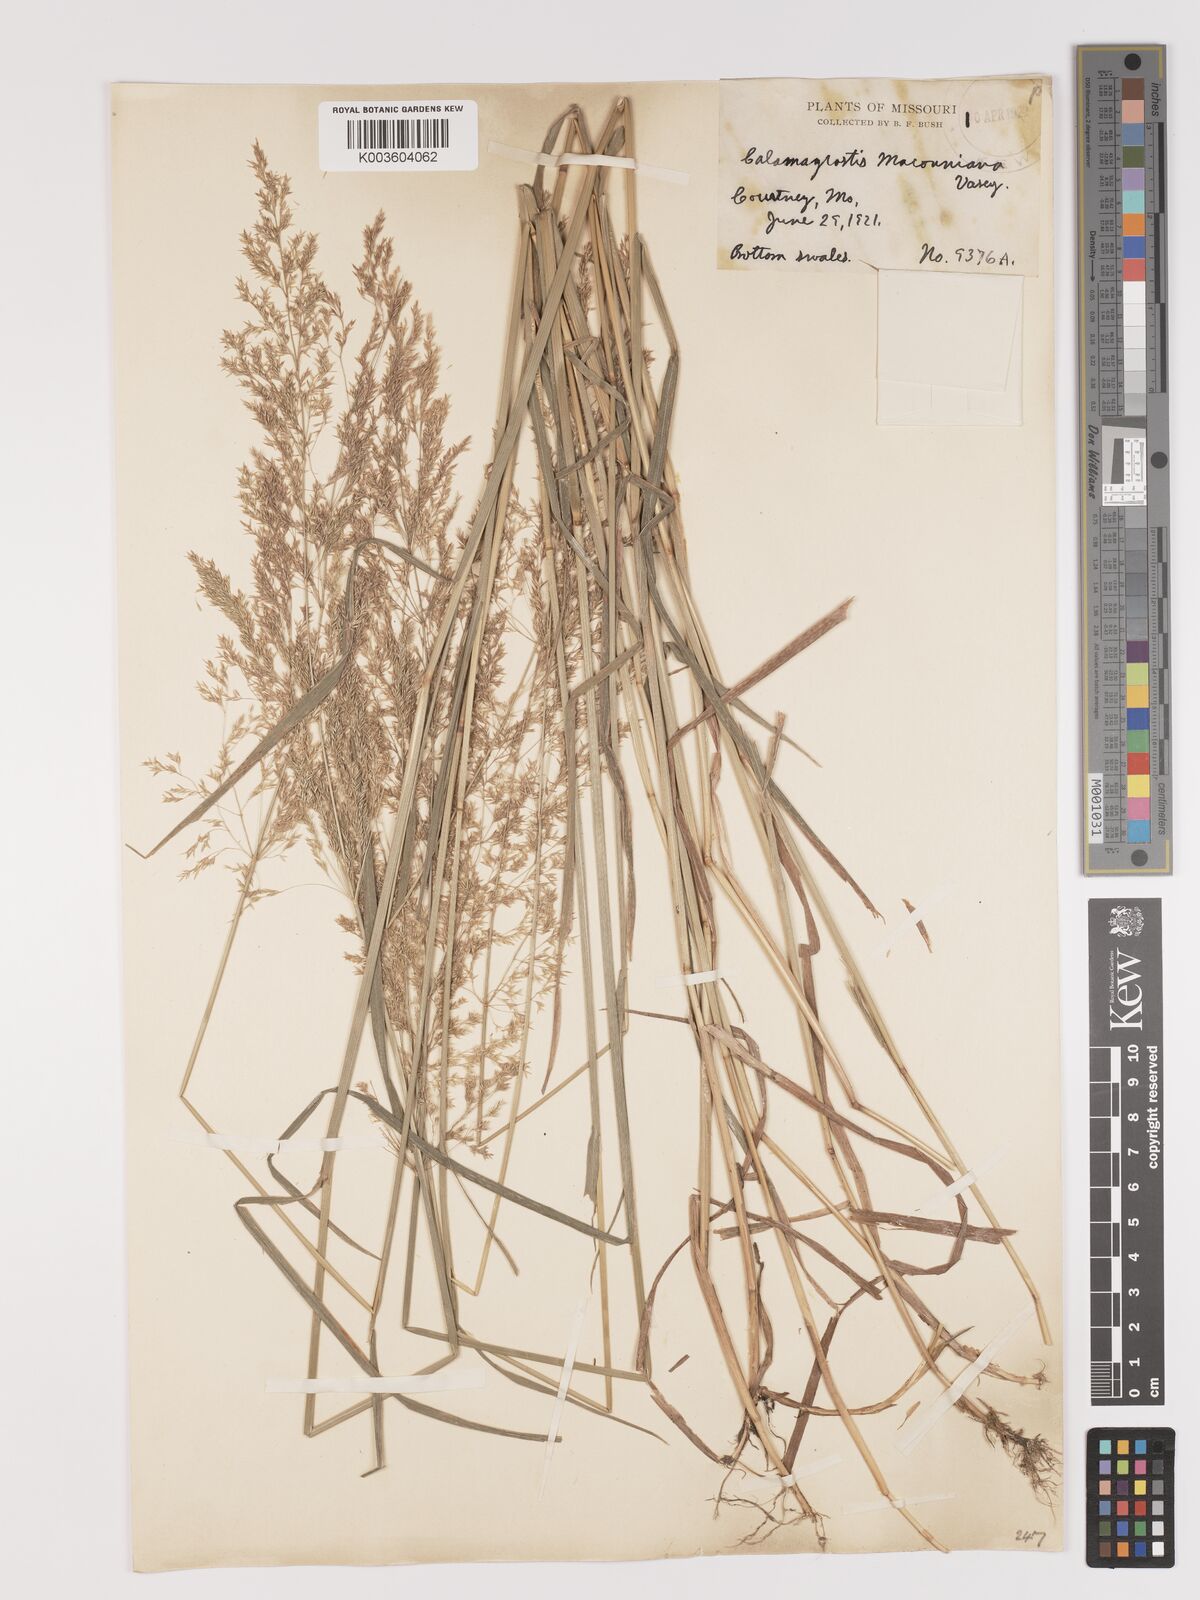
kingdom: Plantae
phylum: Tracheophyta
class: Liliopsida
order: Poales
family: Poaceae
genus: Agrostis
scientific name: Agrostis gigantea
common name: Black bent
